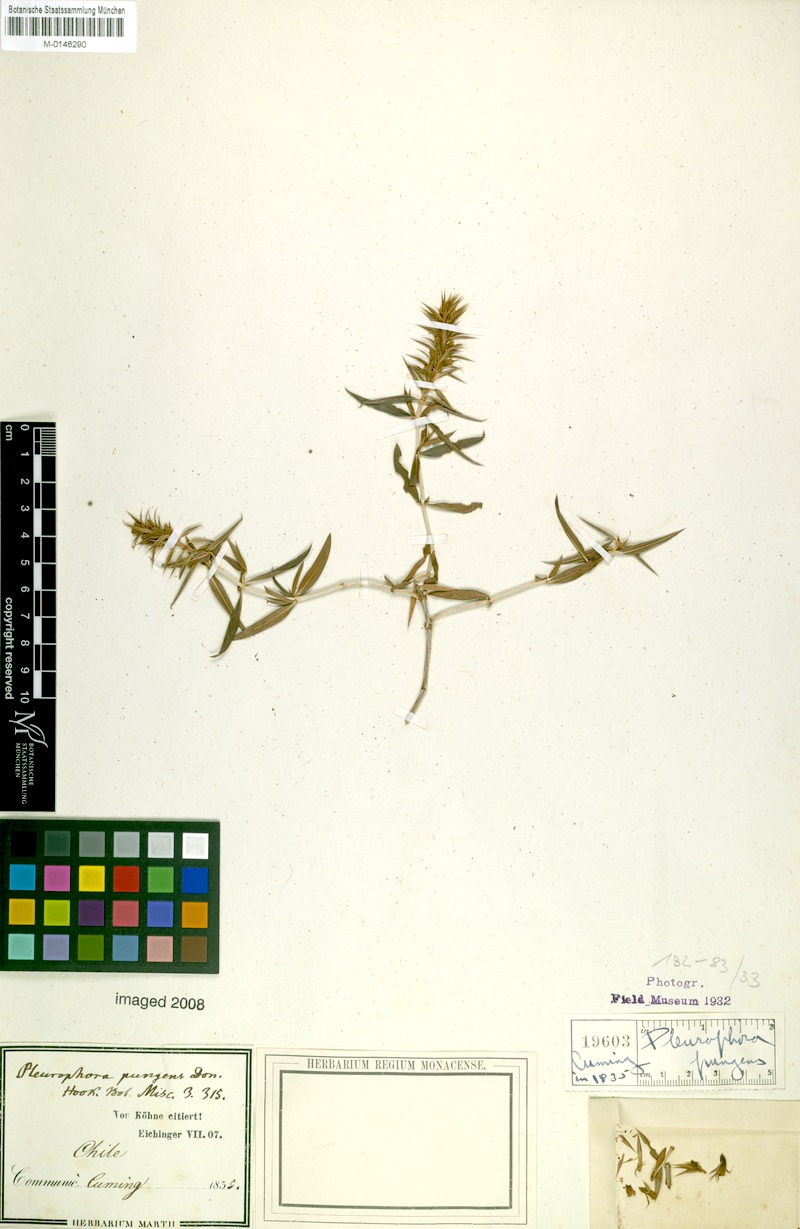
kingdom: Plantae
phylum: Tracheophyta
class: Magnoliopsida
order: Myrtales
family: Lythraceae
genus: Pleurophora
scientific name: Pleurophora pungens
